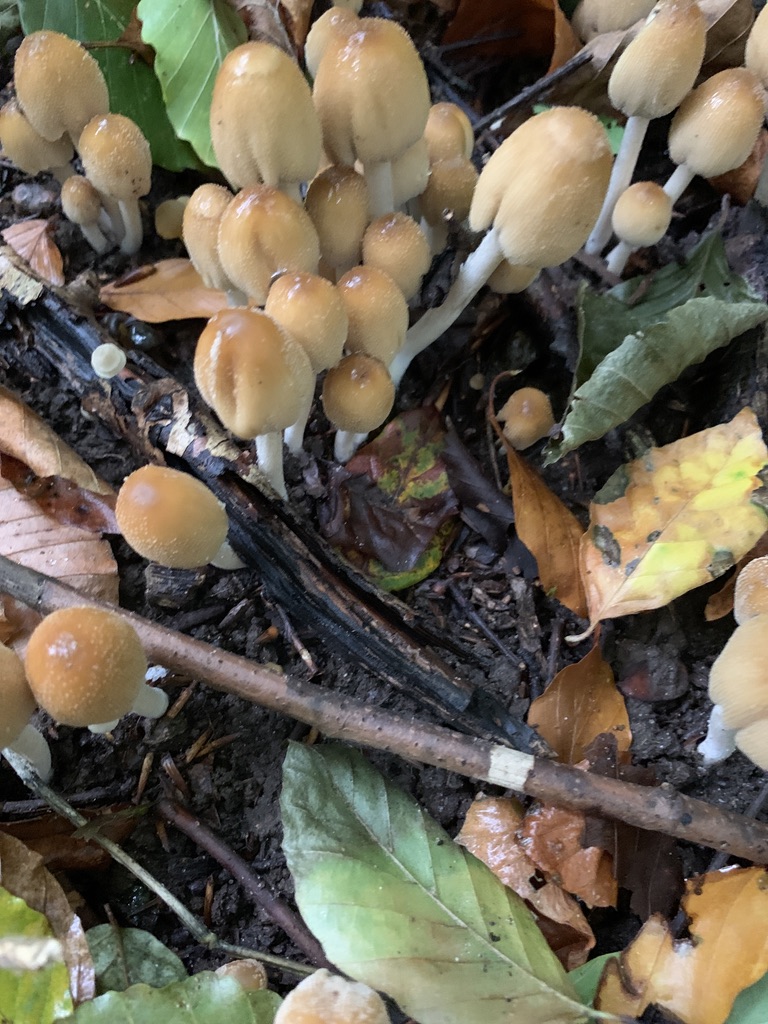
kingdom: Fungi
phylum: Basidiomycota
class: Agaricomycetes
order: Agaricales
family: Psathyrellaceae
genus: Coprinellus
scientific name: Coprinellus micaceus
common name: glimmer-blækhat
